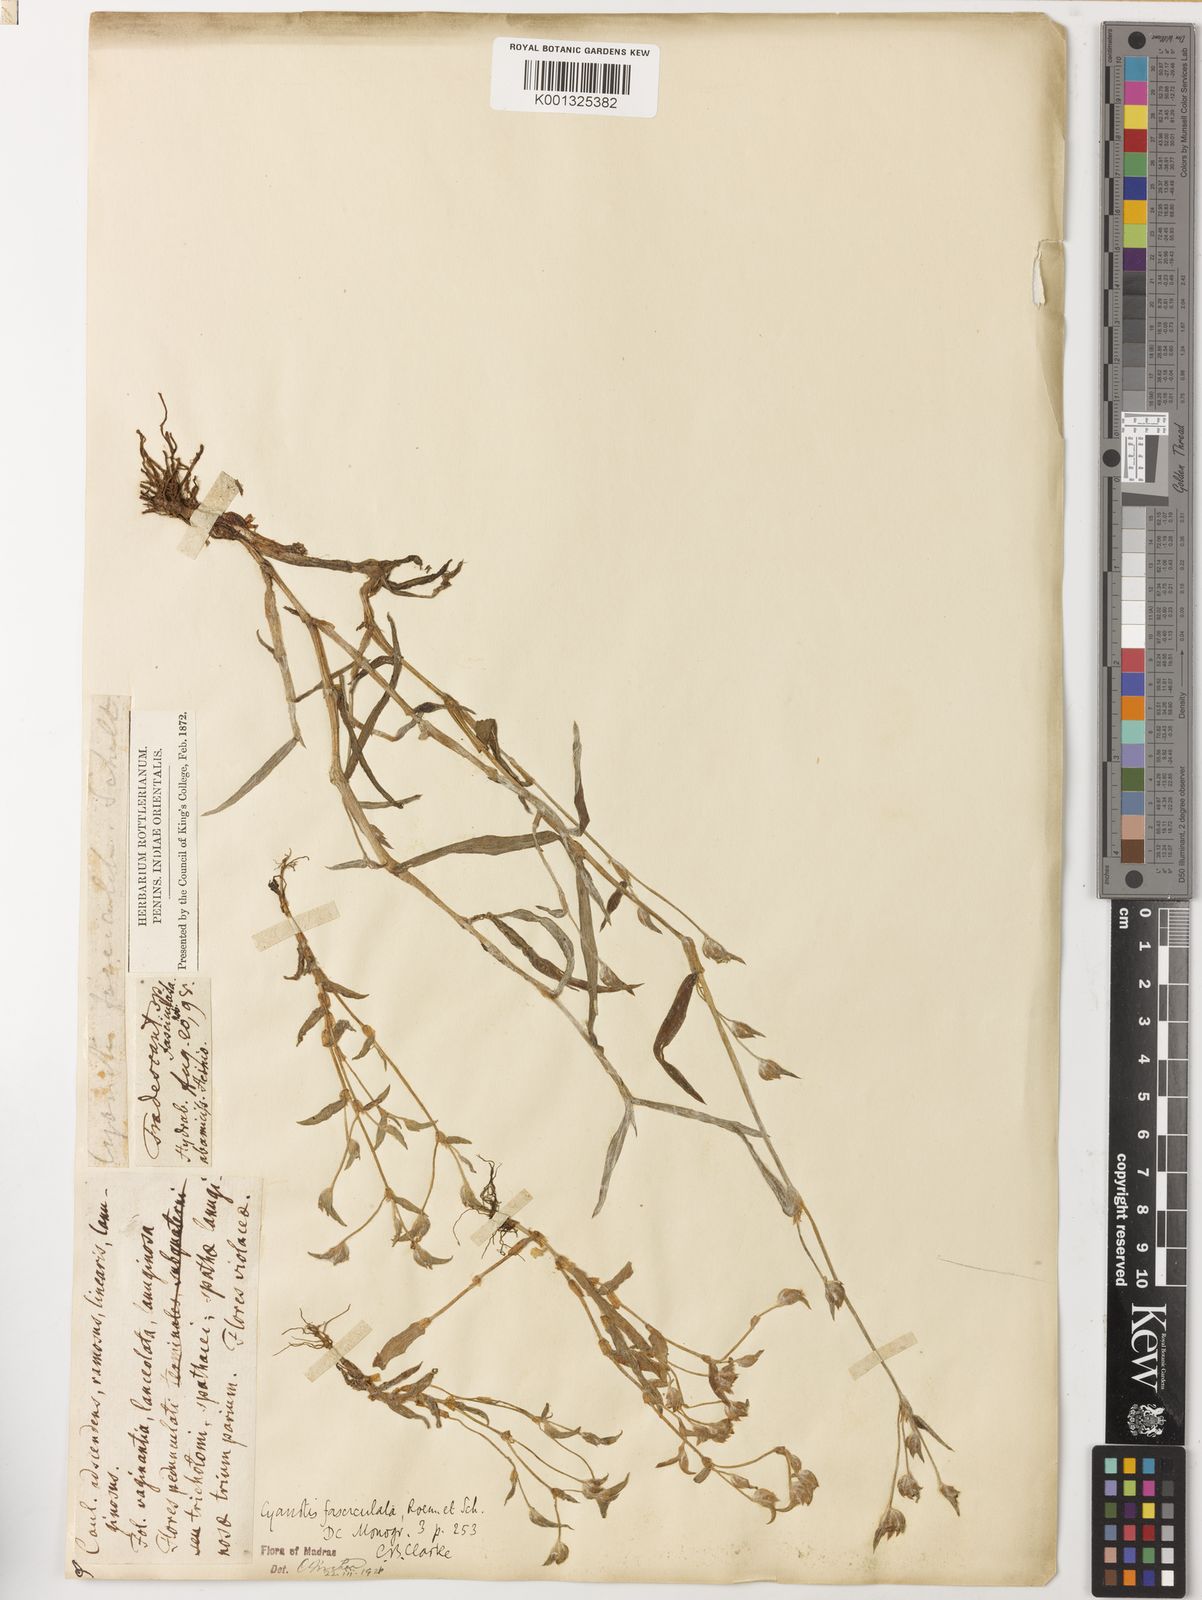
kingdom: Plantae
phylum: Tracheophyta
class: Liliopsida
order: Commelinales
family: Commelinaceae
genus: Cyanotis
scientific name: Cyanotis fasciculata
